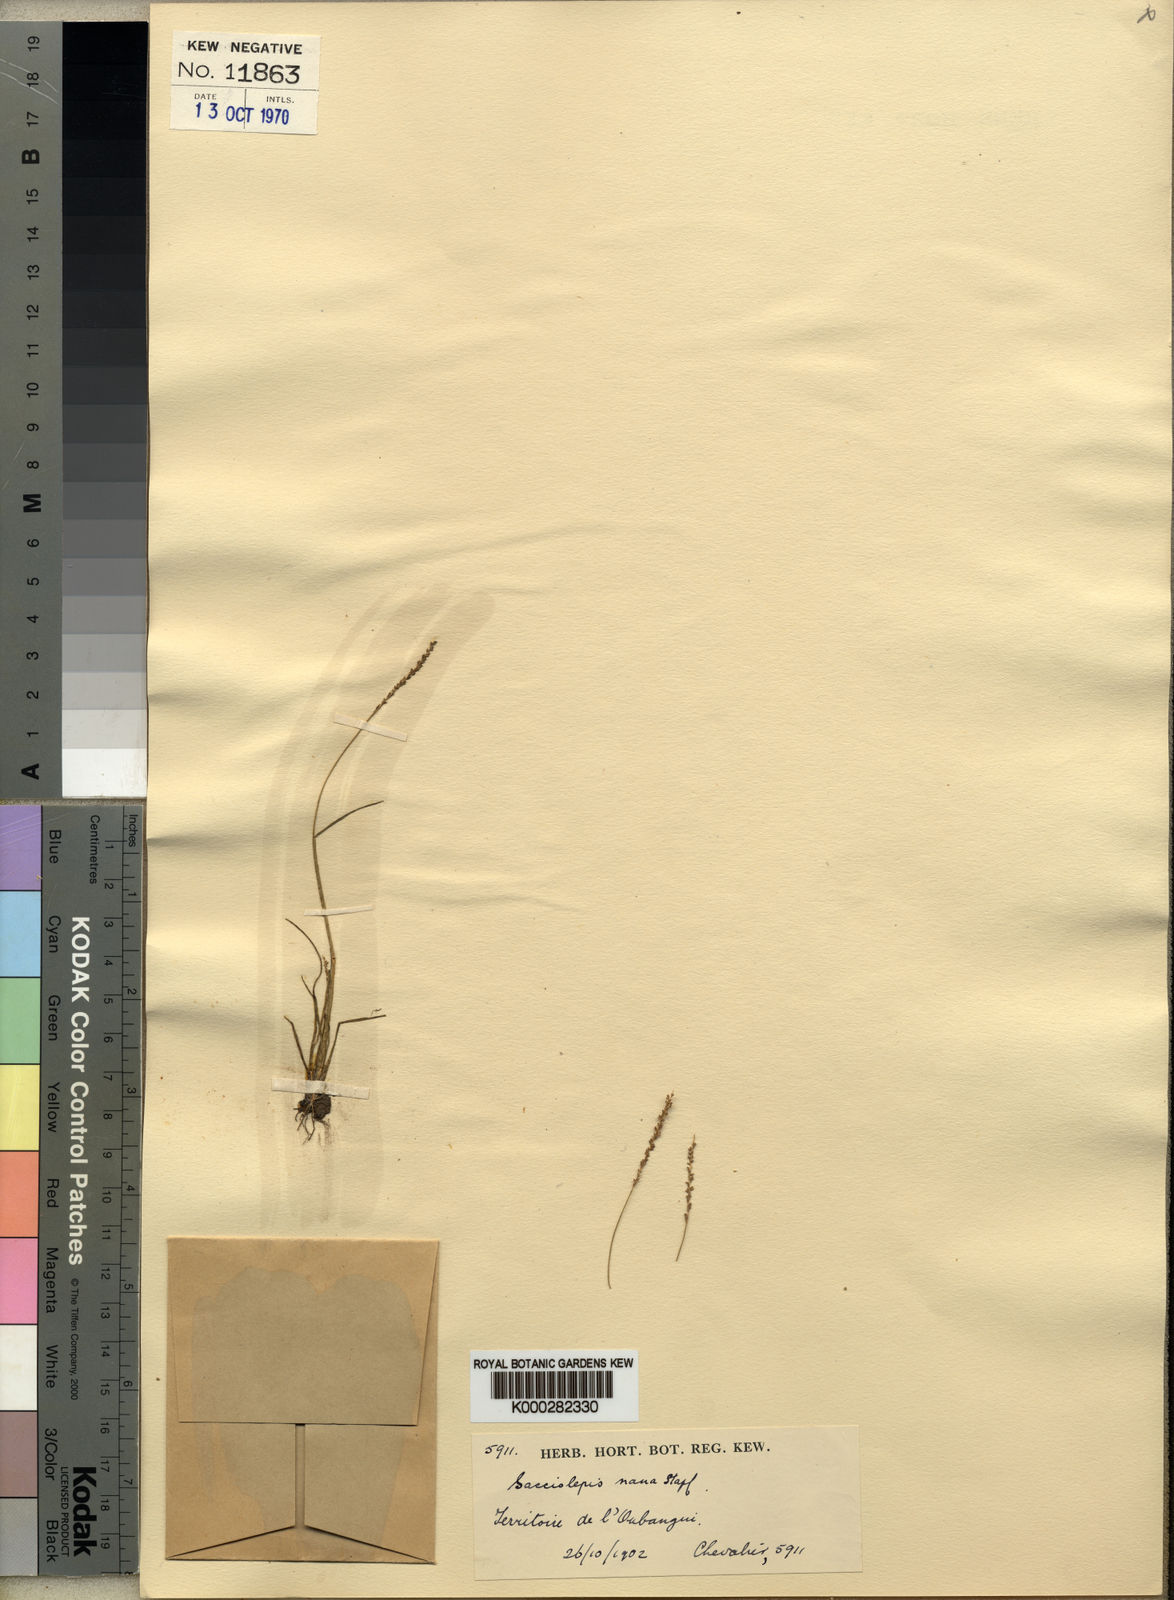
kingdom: Plantae
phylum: Tracheophyta
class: Liliopsida
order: Poales
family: Poaceae
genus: Sacciolepis
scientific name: Sacciolepis micrococca
